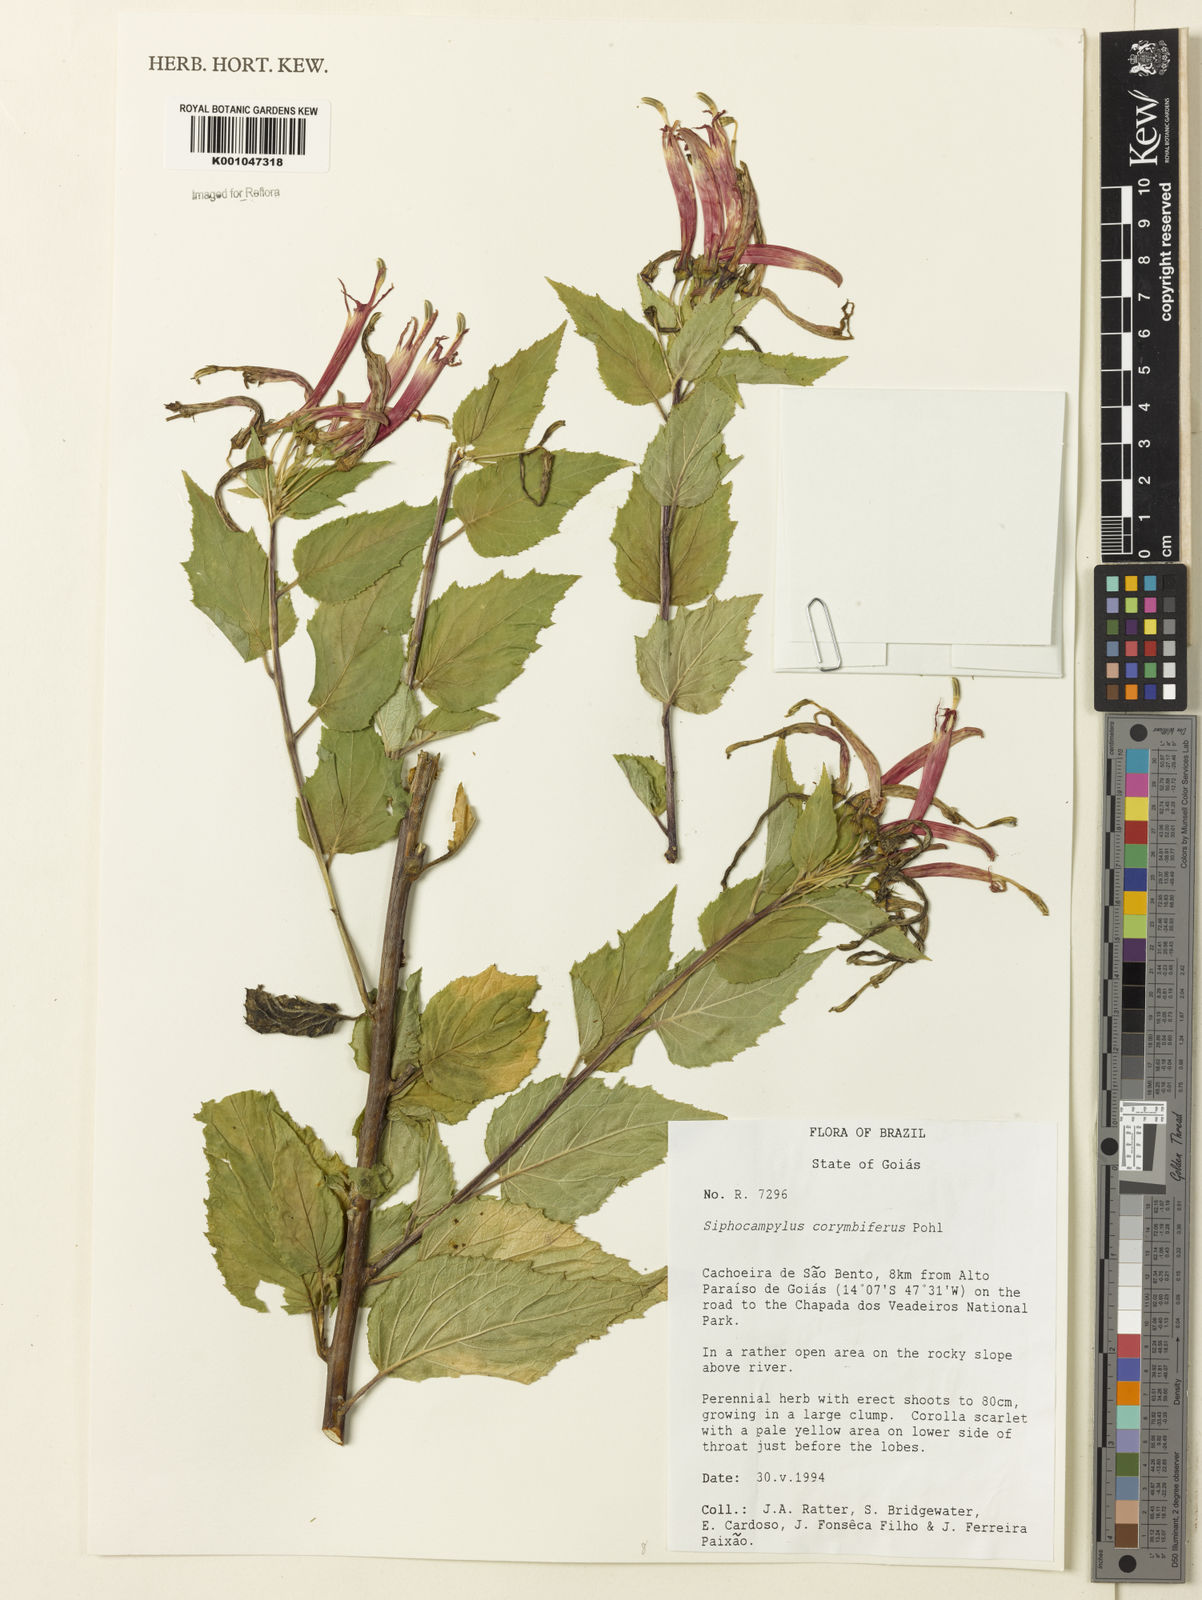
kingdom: Plantae
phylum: Tracheophyta
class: Magnoliopsida
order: Asterales
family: Campanulaceae
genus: Siphocampylus
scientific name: Siphocampylus corymbifer
